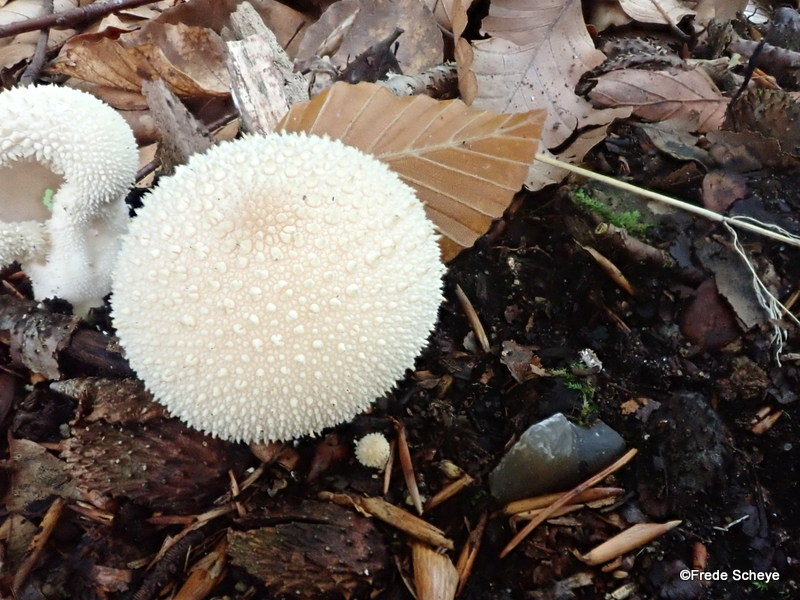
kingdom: Fungi
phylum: Basidiomycota
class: Agaricomycetes
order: Agaricales
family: Lycoperdaceae
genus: Lycoperdon
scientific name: Lycoperdon perlatum
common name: krystal-støvbold
